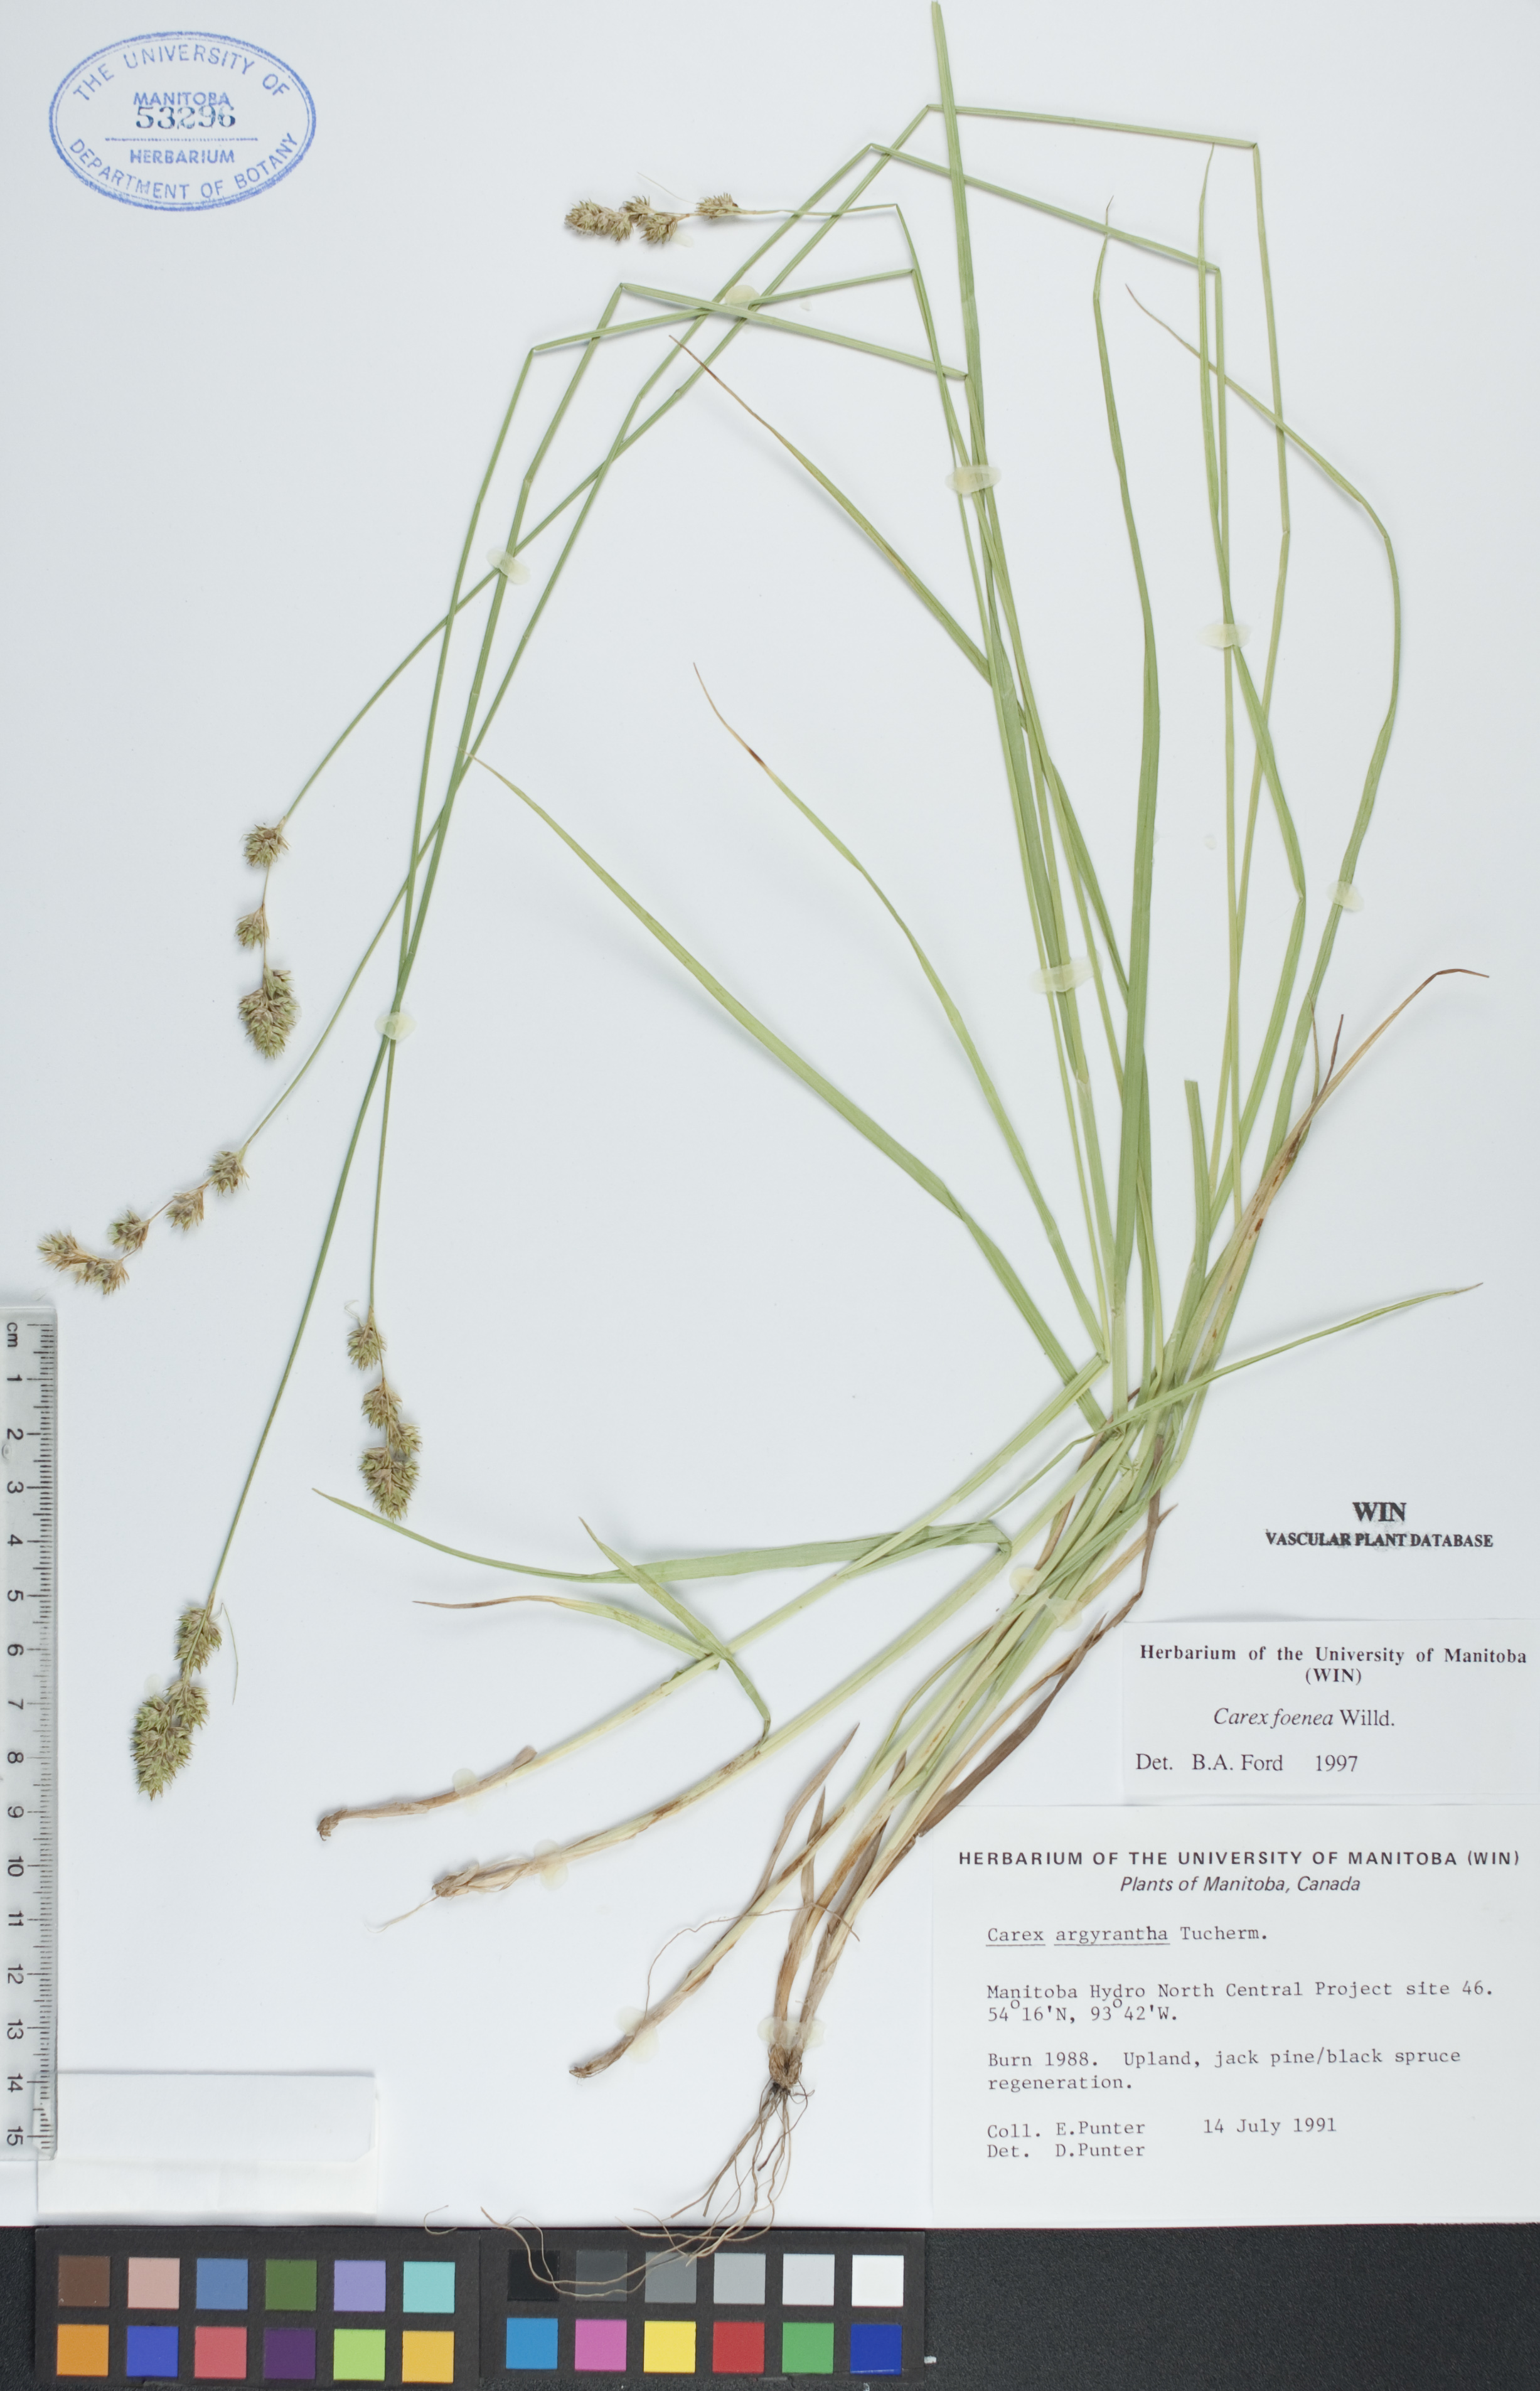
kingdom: Plantae
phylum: Tracheophyta
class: Liliopsida
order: Poales
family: Cyperaceae
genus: Carex
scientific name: Carex foenea
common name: Bronze sedge
